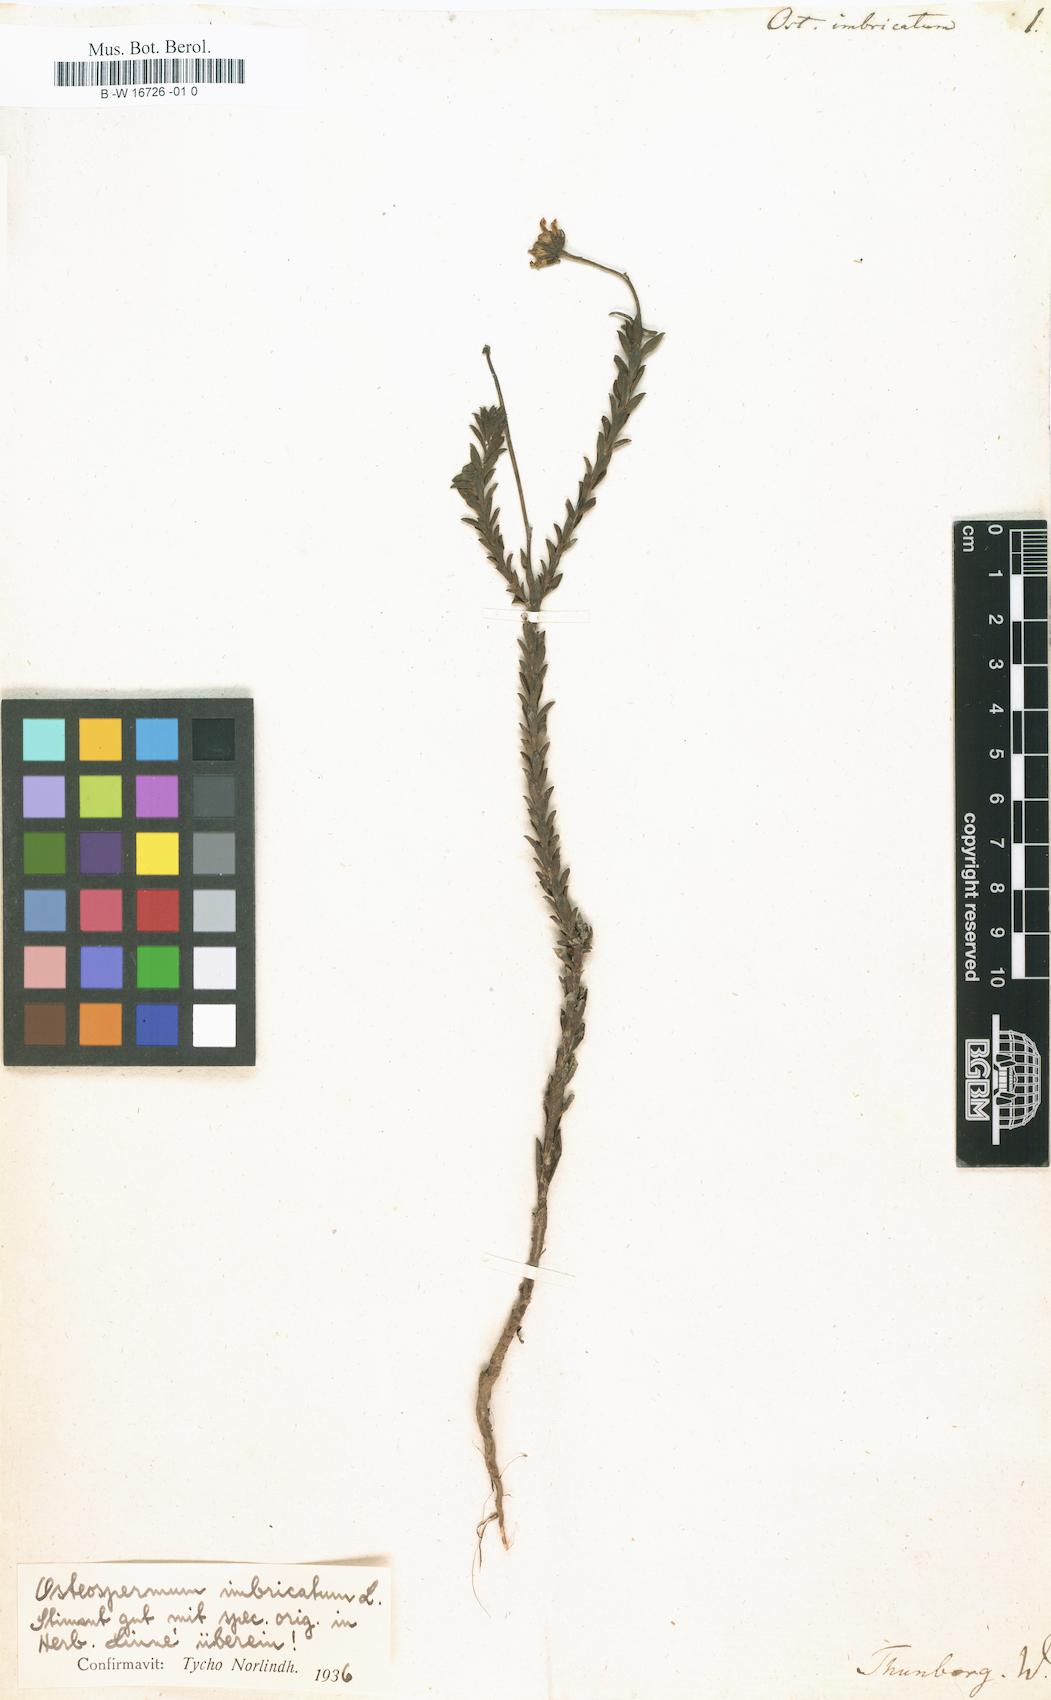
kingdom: Plantae
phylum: Tracheophyta
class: Magnoliopsida
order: Asterales
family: Asteraceae
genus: Osteospermum
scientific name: Osteospermum imbricatum
